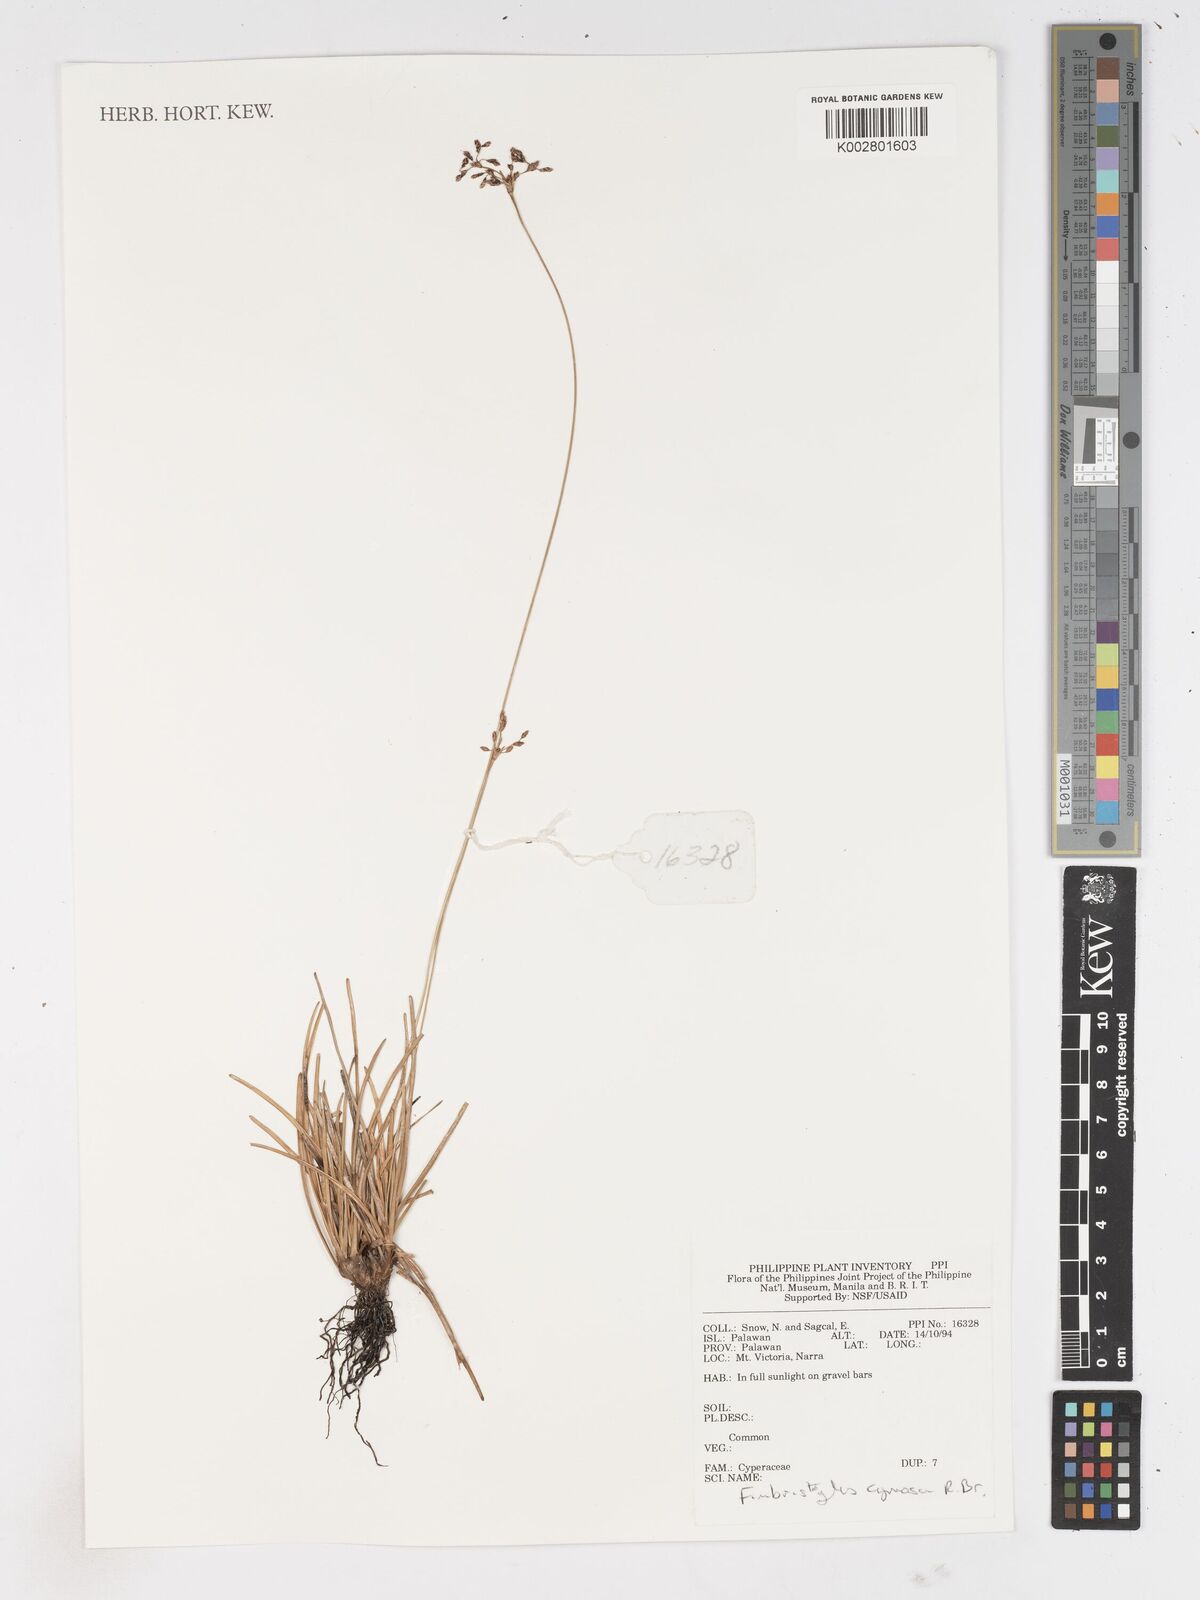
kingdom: Plantae
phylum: Tracheophyta
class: Liliopsida
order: Poales
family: Cyperaceae
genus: Fimbristylis
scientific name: Fimbristylis cymosa
